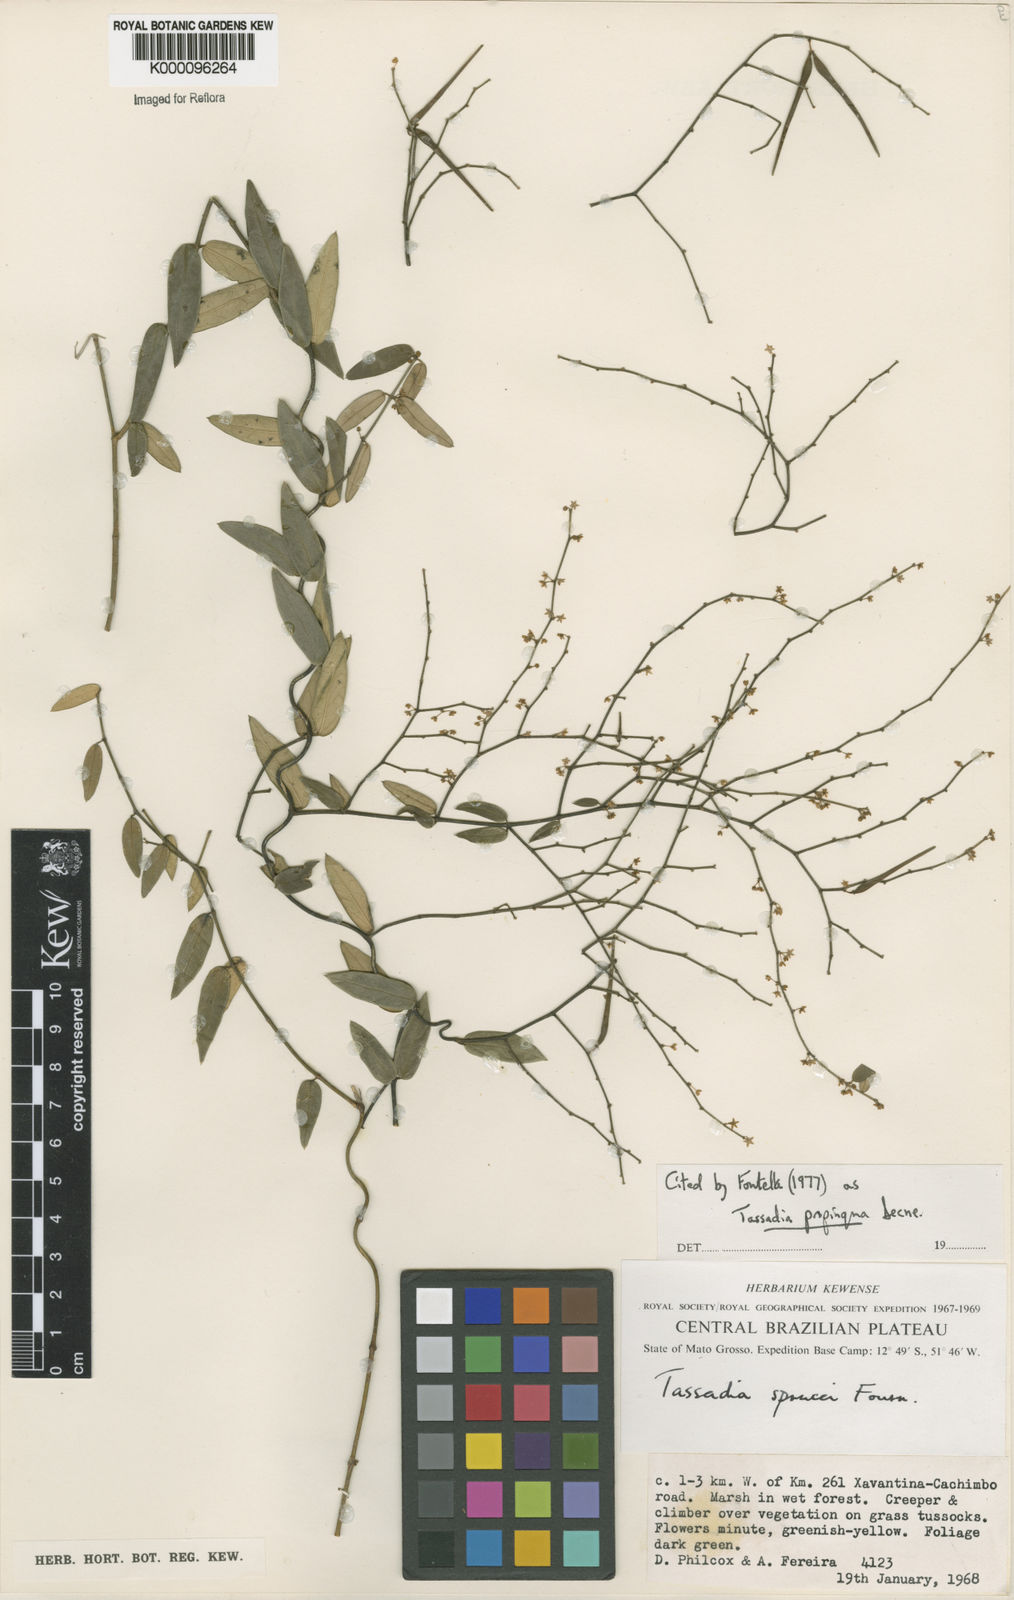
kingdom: Plantae
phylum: Tracheophyta
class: Magnoliopsida
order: Gentianales
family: Apocynaceae
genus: Tassadia
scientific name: Tassadia propinqua
